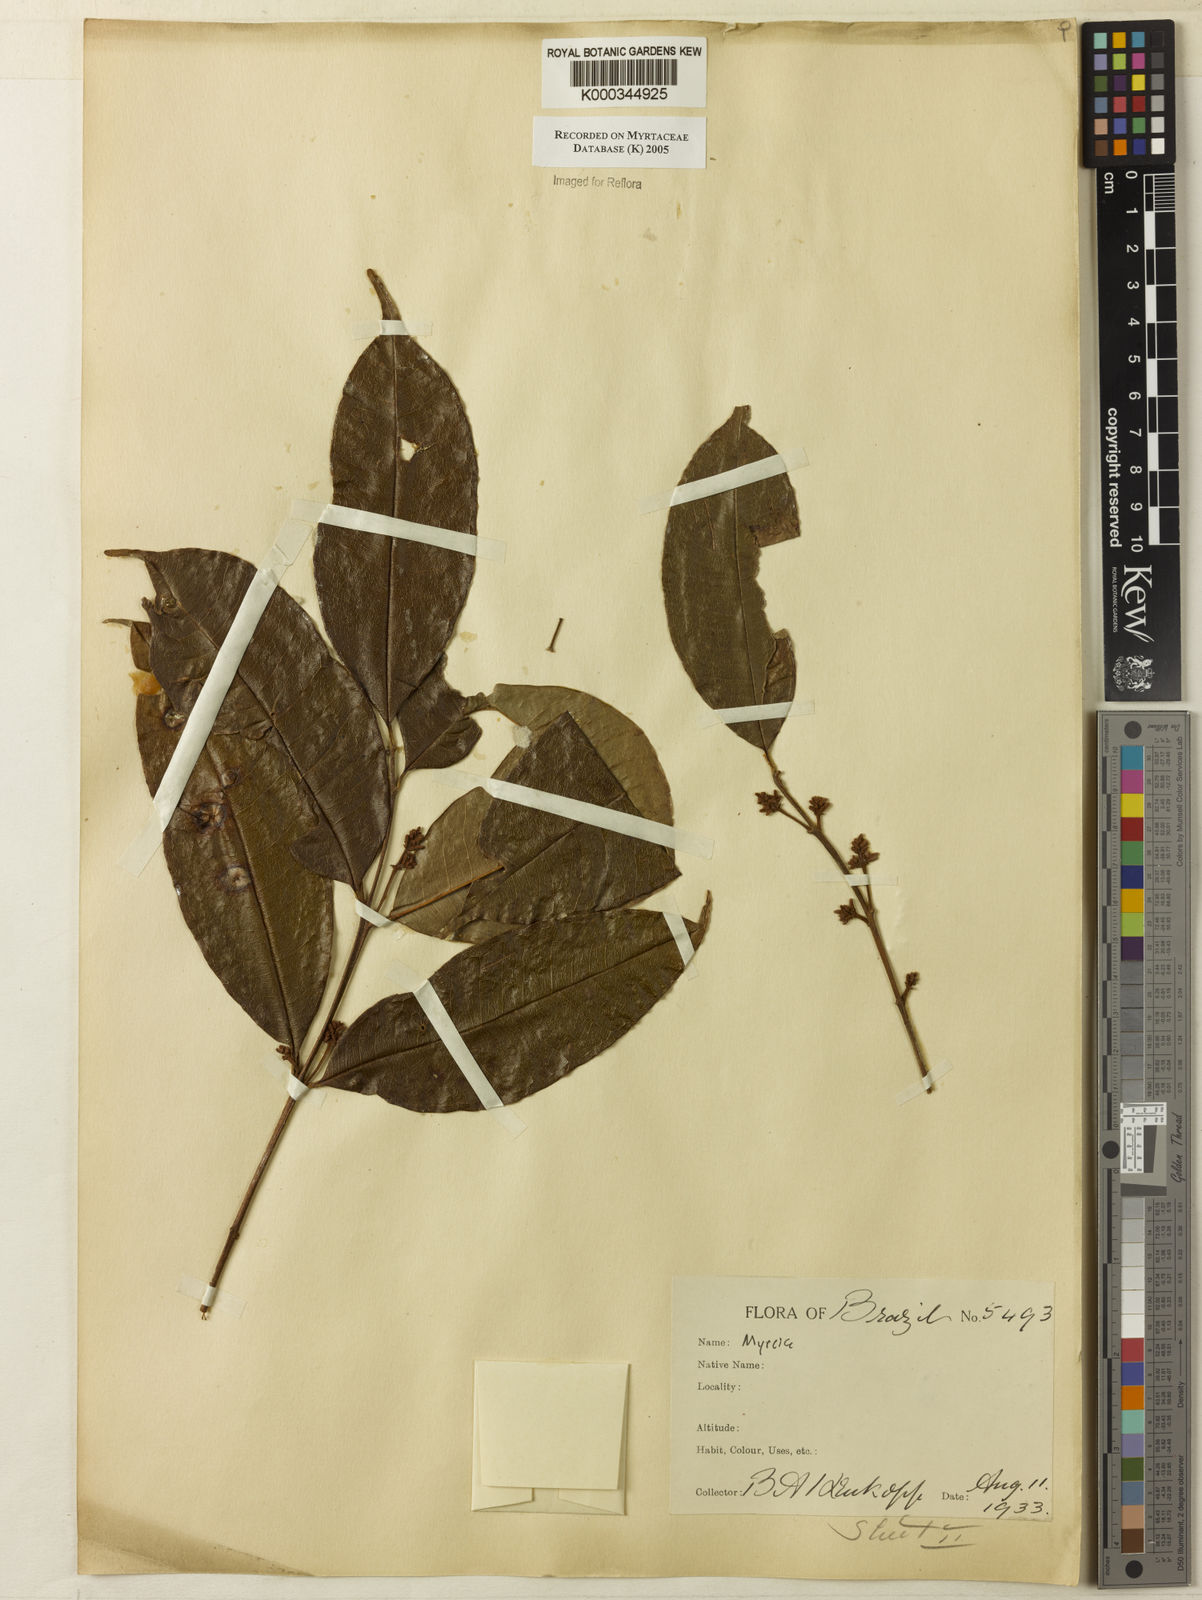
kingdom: Plantae
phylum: Tracheophyta
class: Magnoliopsida
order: Myrtales
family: Myrtaceae
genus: Myrcia
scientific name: Myrcia
